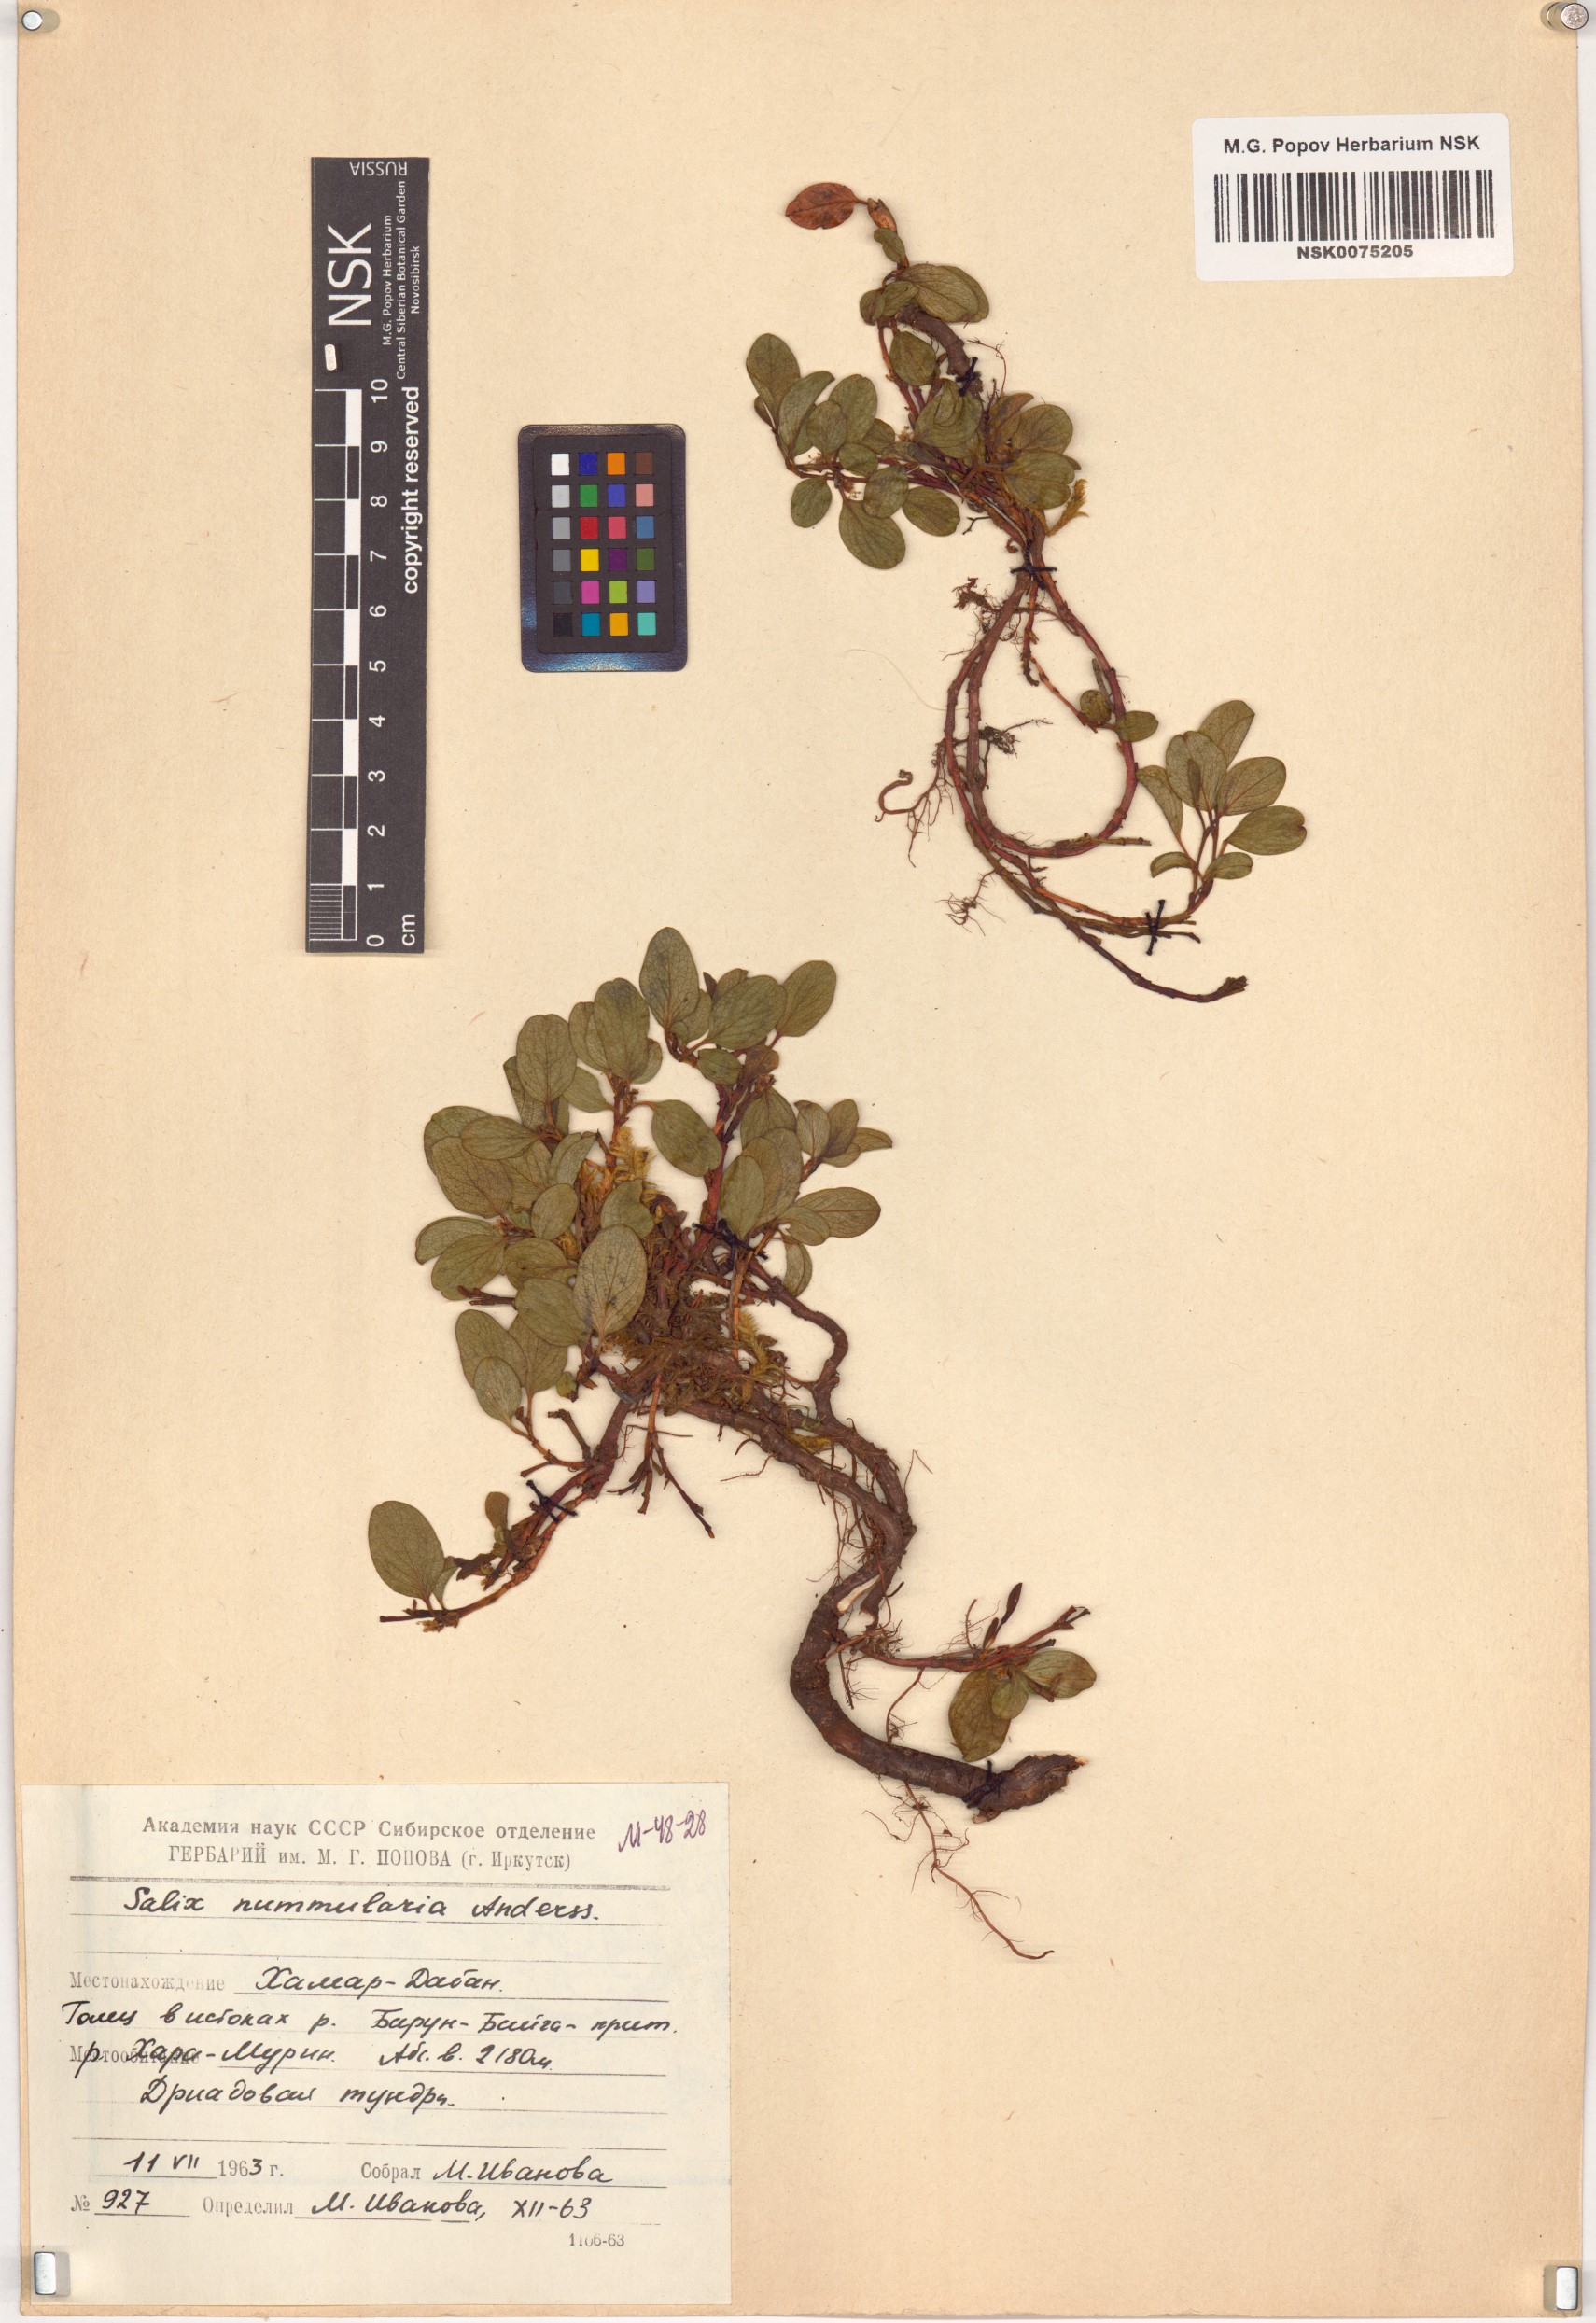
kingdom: Plantae
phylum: Tracheophyta
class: Magnoliopsida
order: Malpighiales
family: Salicaceae
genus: Salix
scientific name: Salix nummularia
